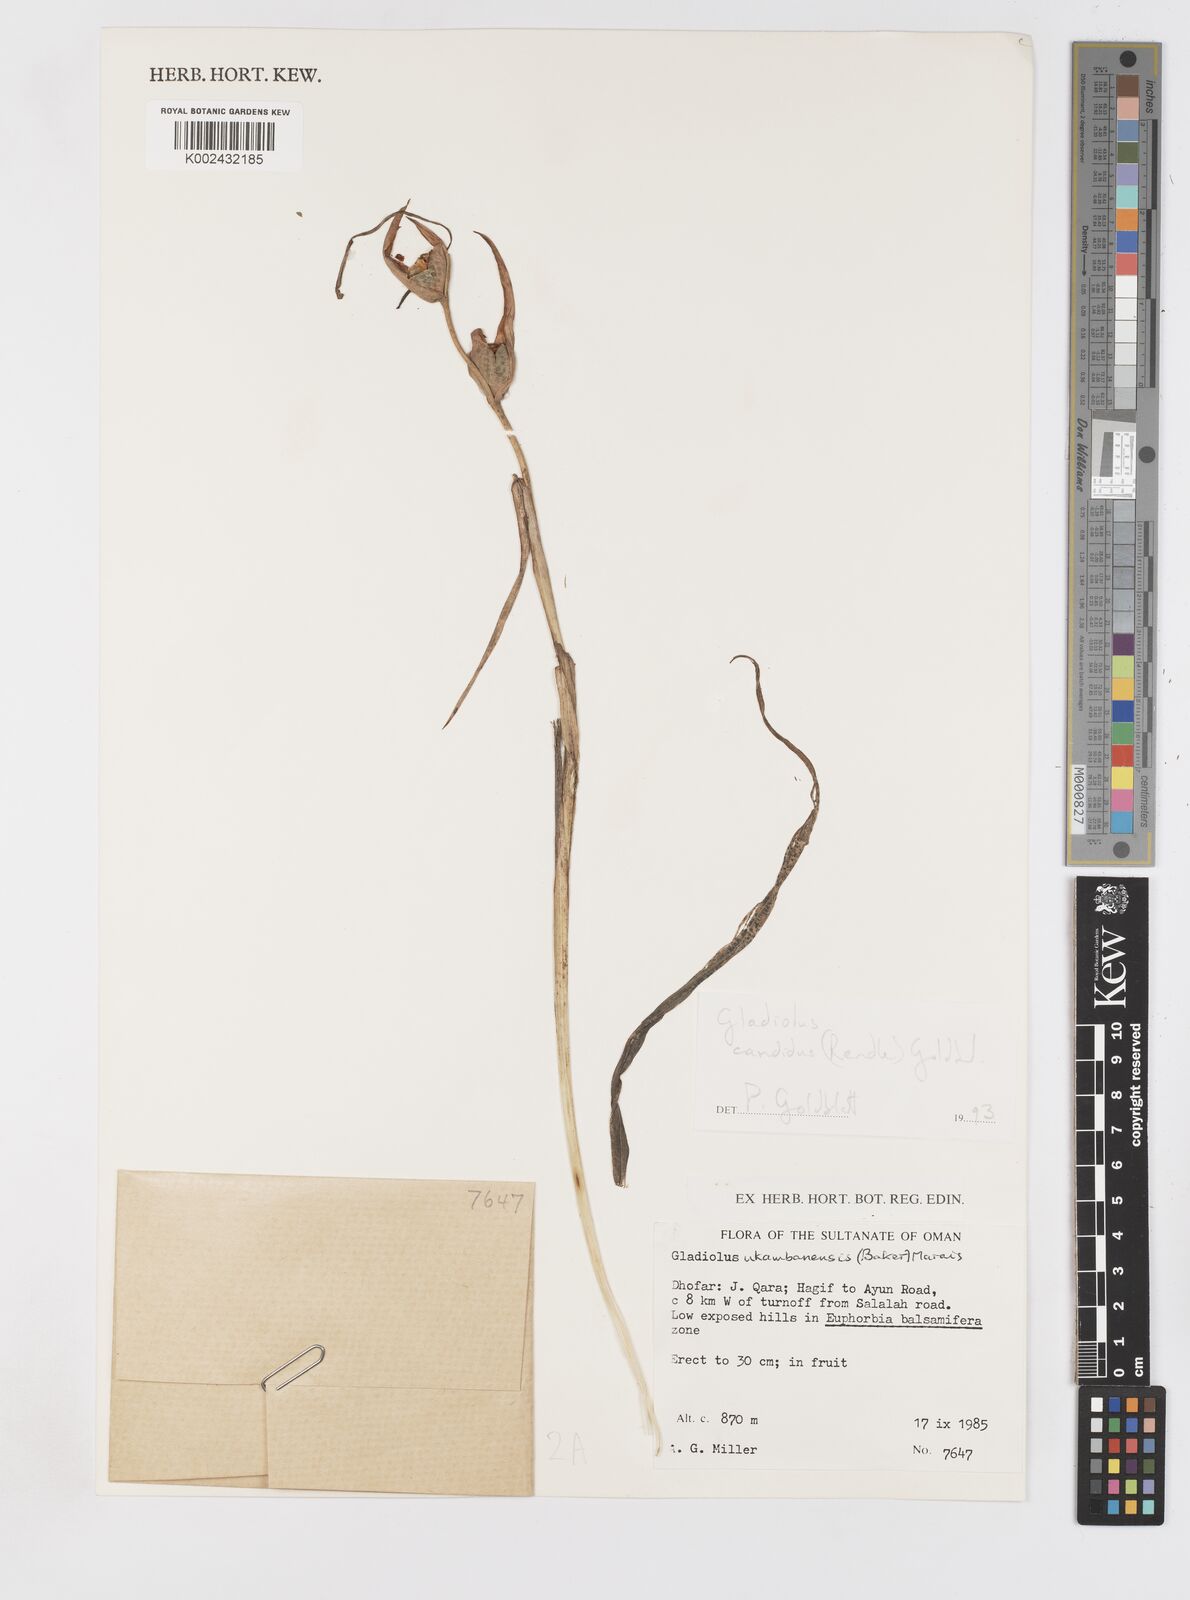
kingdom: Plantae
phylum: Tracheophyta
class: Liliopsida
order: Asparagales
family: Iridaceae
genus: Gladiolus
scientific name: Gladiolus candidus
